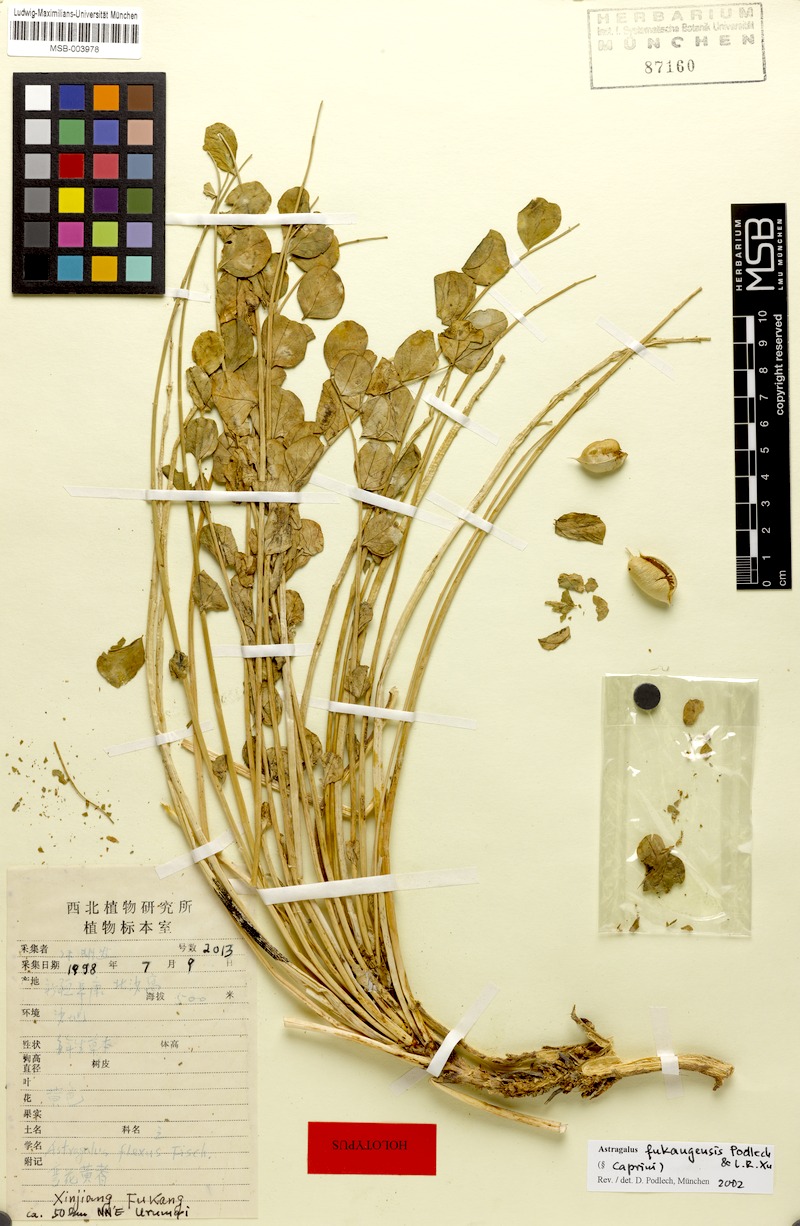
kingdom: Plantae
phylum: Tracheophyta
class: Magnoliopsida
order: Fabales
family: Fabaceae
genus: Astragalus
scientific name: Astragalus fukangensis
